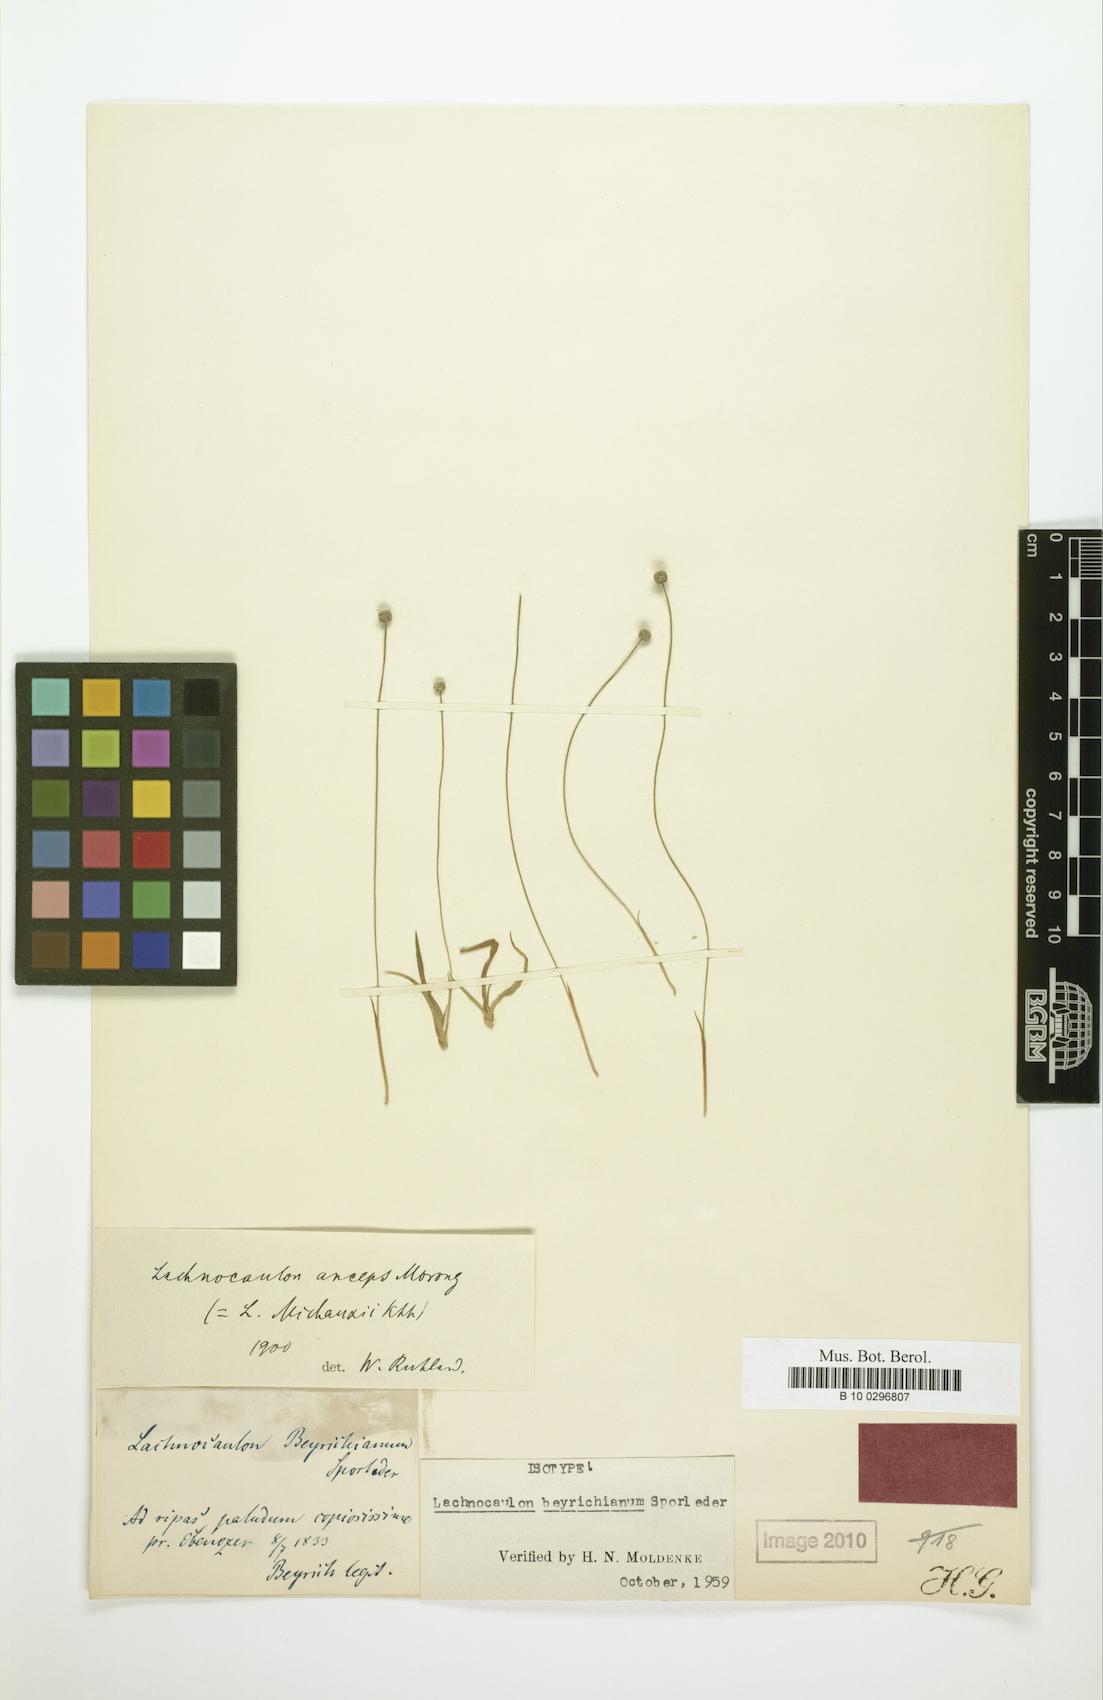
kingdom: Plantae
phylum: Tracheophyta
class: Liliopsida
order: Poales
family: Eriocaulaceae
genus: Paepalanthus
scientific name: Paepalanthus beyrichianus
